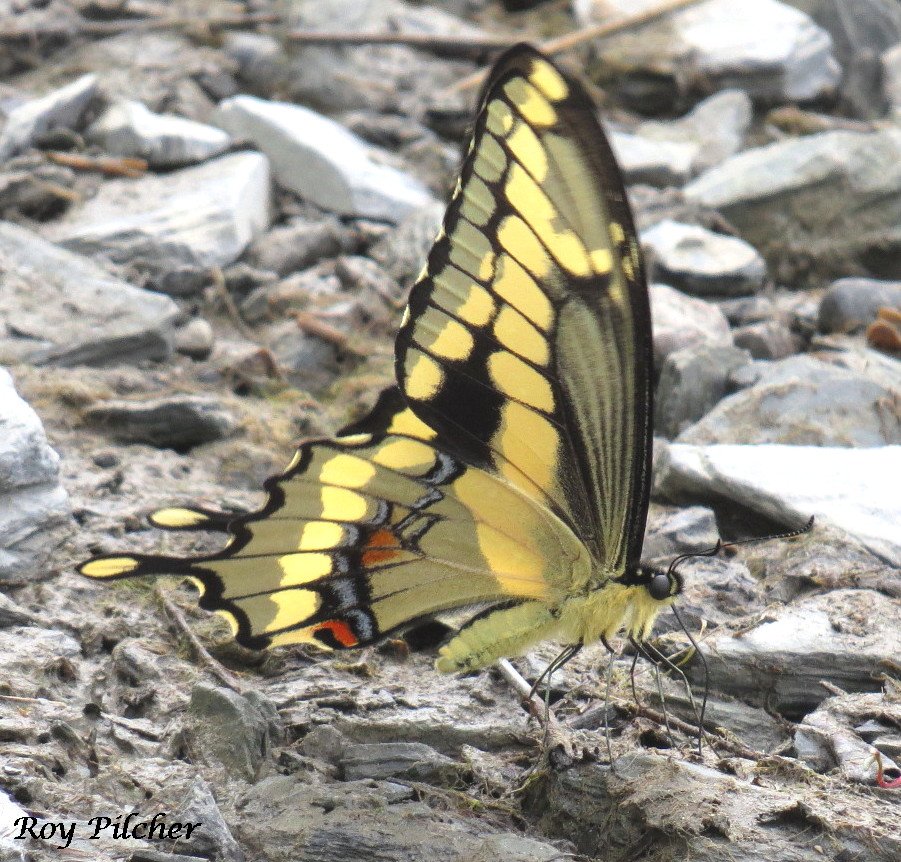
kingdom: Animalia
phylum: Arthropoda
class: Insecta
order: Lepidoptera
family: Papilionidae
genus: Papilio
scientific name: Papilio cresphontes
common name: Eastern Giant Swallowtail
